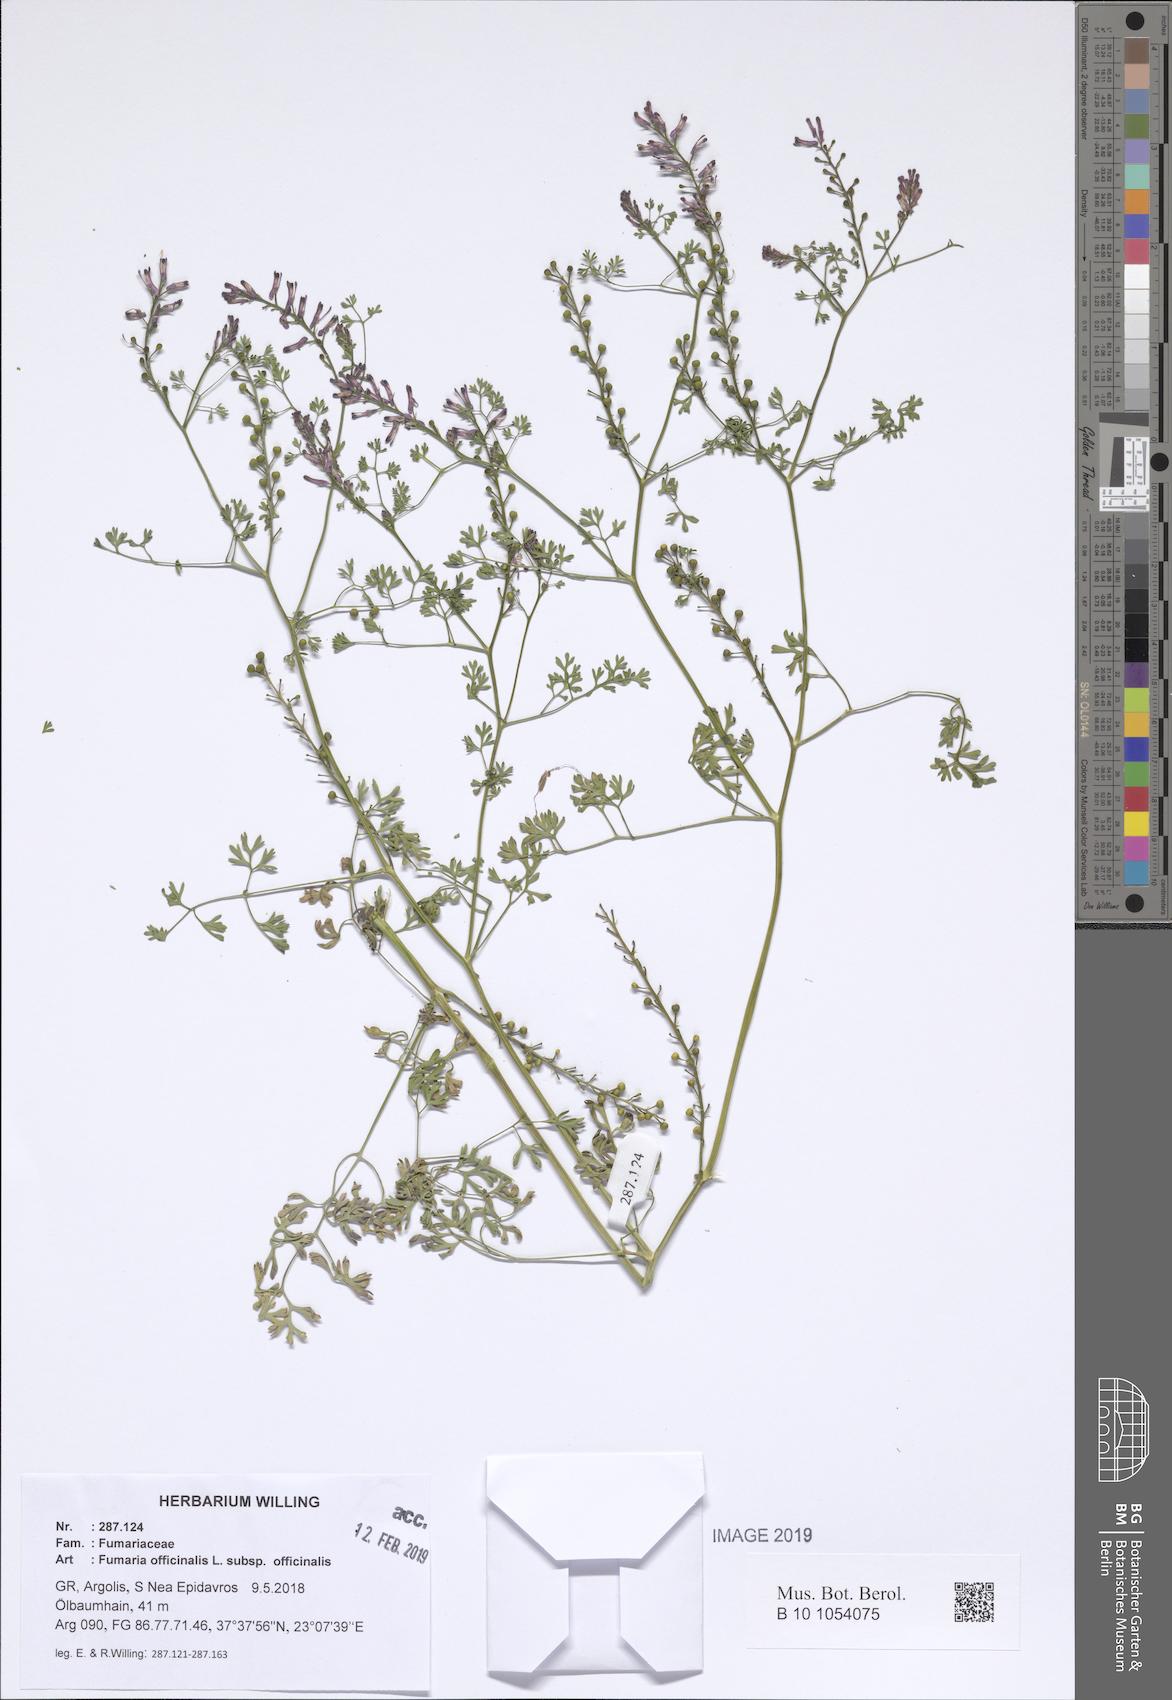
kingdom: Plantae
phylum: Tracheophyta
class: Magnoliopsida
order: Ranunculales
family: Papaveraceae
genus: Fumaria
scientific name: Fumaria officinalis
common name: Common fumitory
